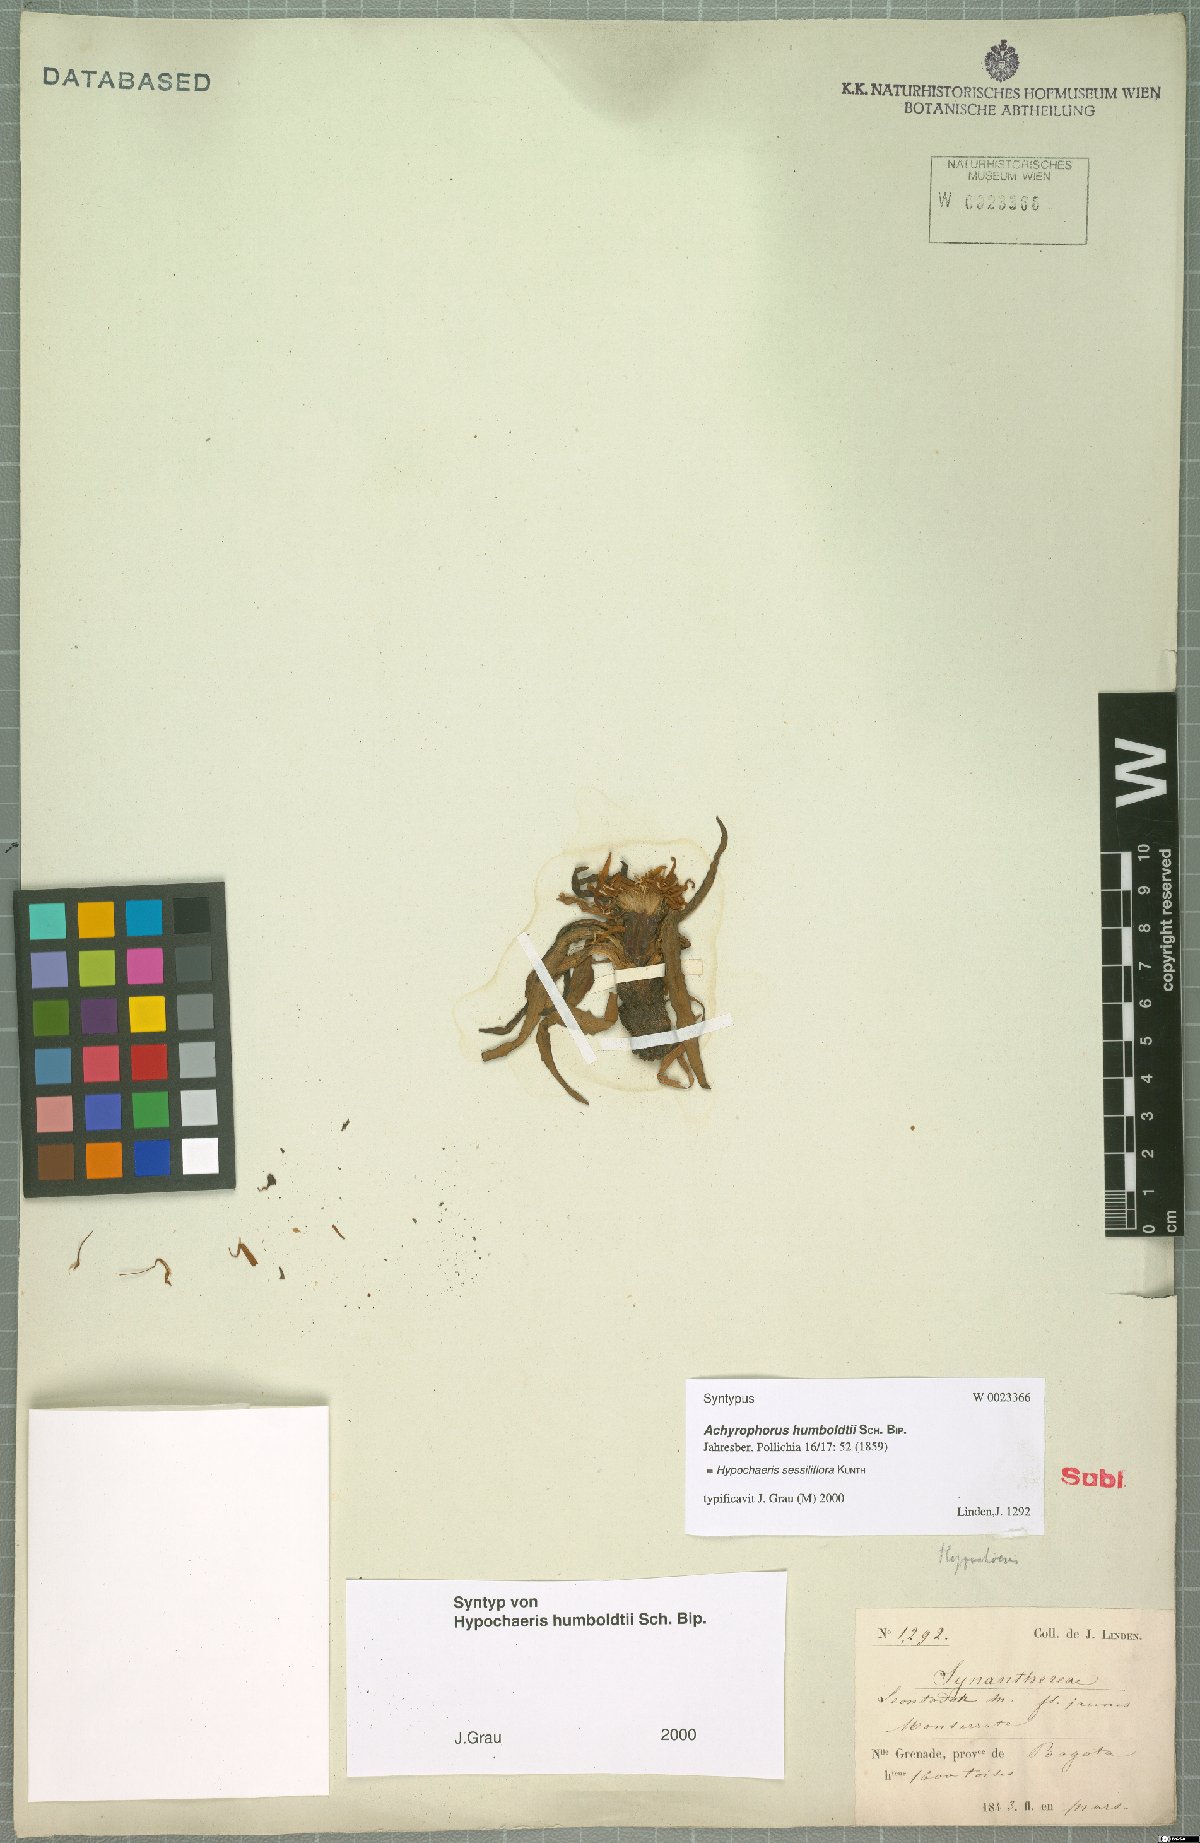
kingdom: Plantae
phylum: Tracheophyta
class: Magnoliopsida
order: Asterales
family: Asteraceae
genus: Hypochaeris
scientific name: Hypochaeris sessiliflora
